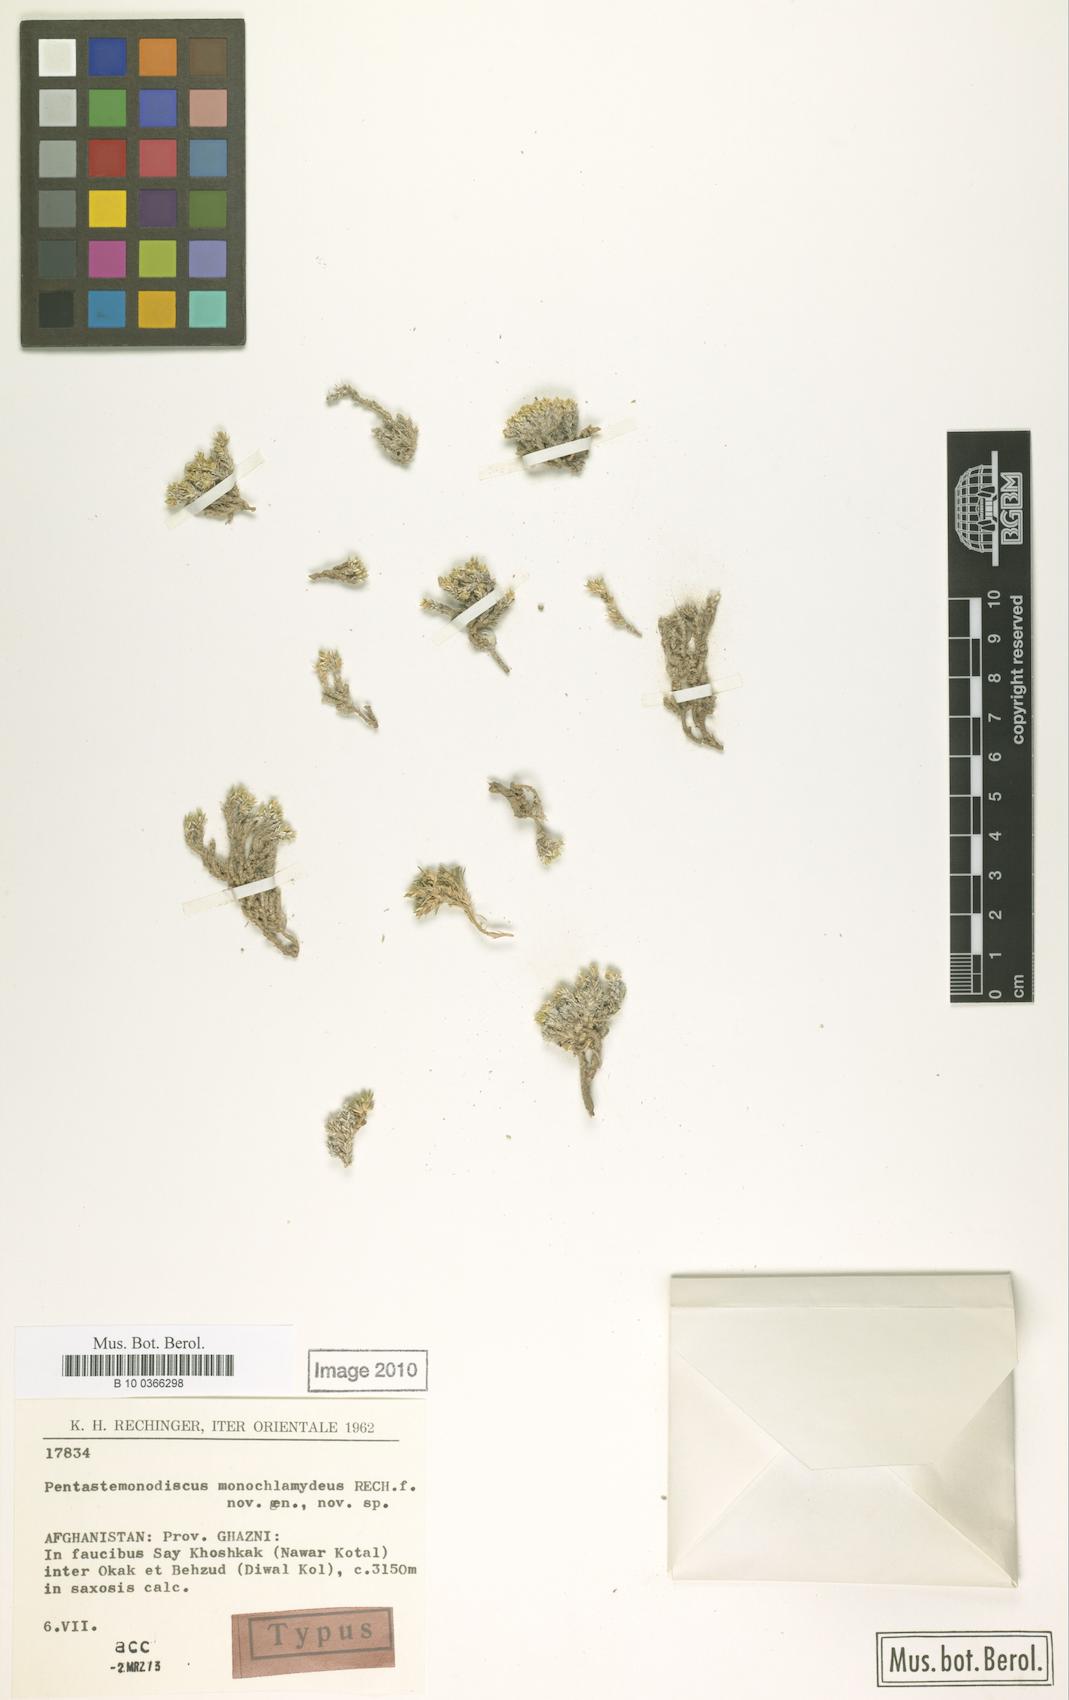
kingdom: Plantae
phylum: Tracheophyta
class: Magnoliopsida
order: Caryophyllales
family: Caryophyllaceae
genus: Pentastemonodiscus
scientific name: Pentastemonodiscus monochlamydeus
